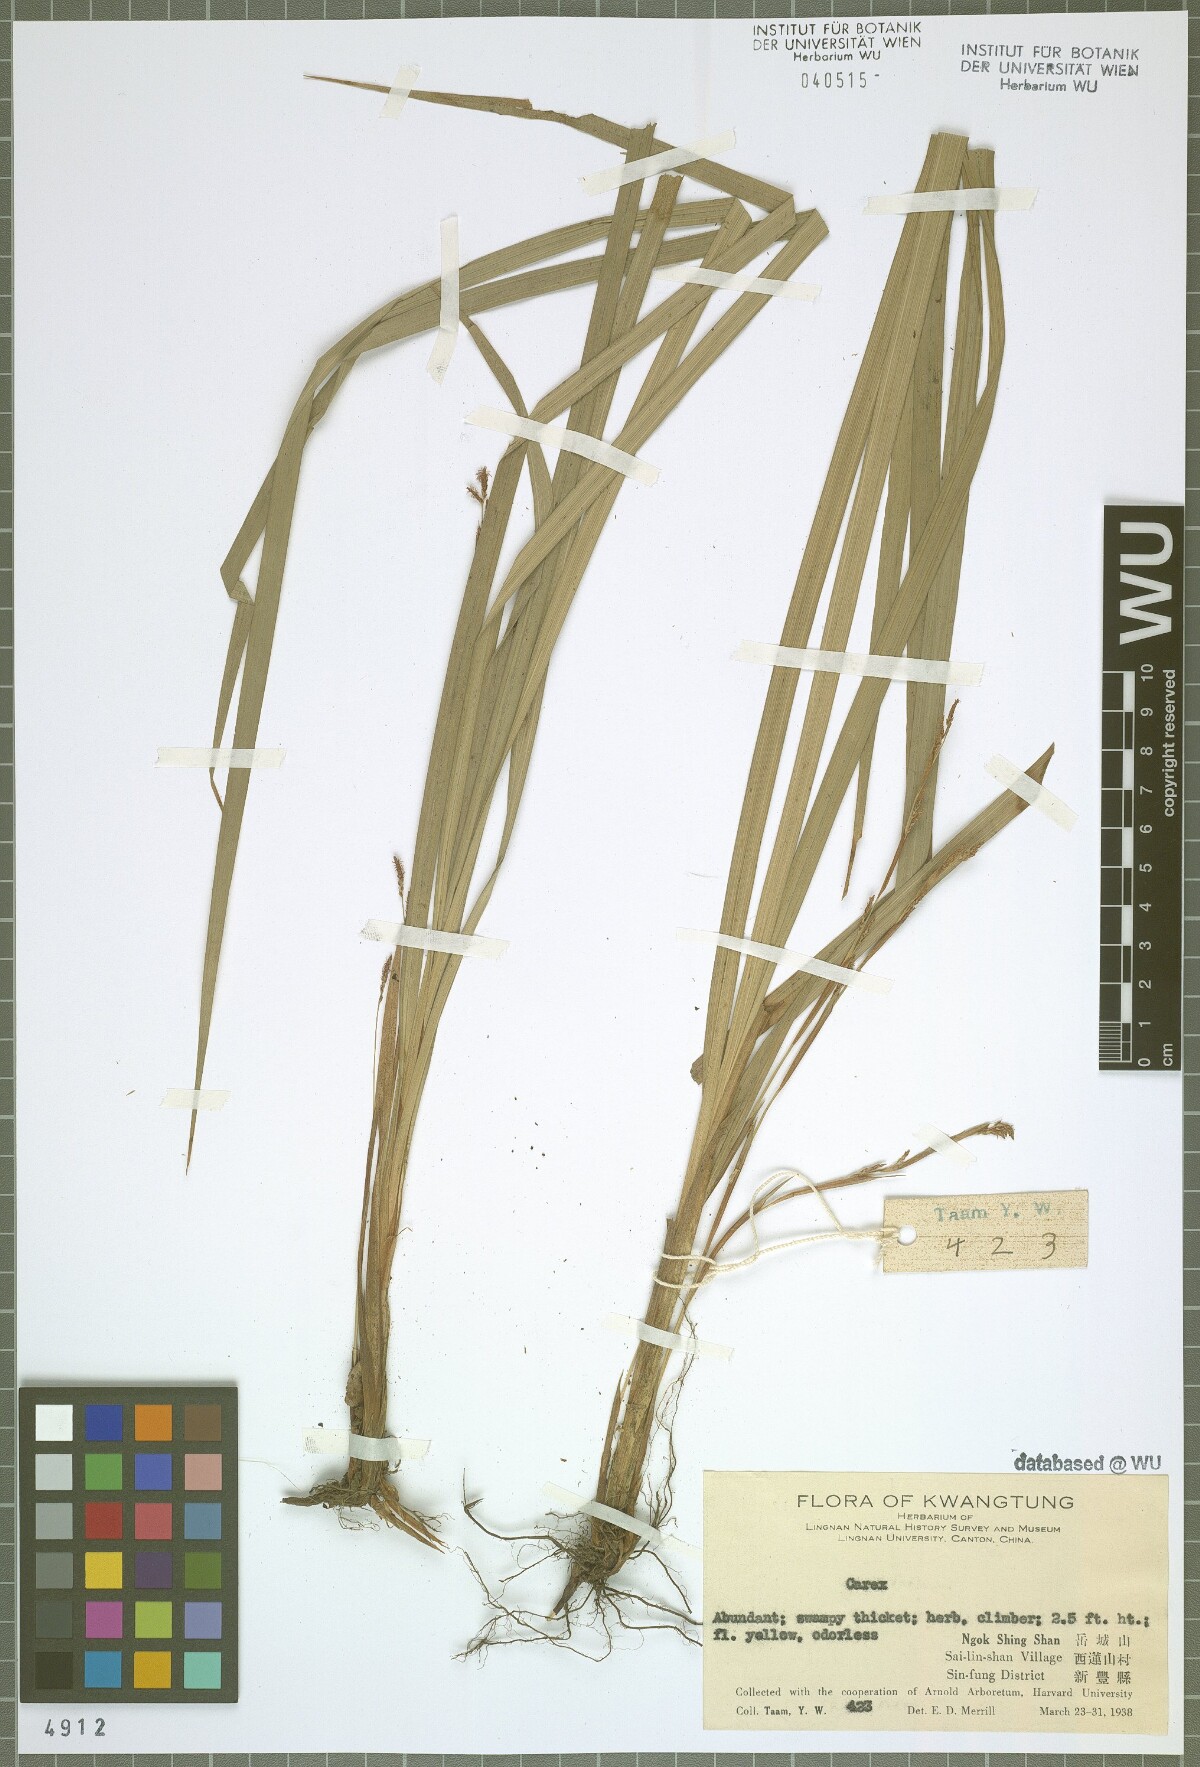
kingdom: Plantae
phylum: Tracheophyta
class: Liliopsida
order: Poales
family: Cyperaceae
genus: Carex
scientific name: Carex glossostigma
